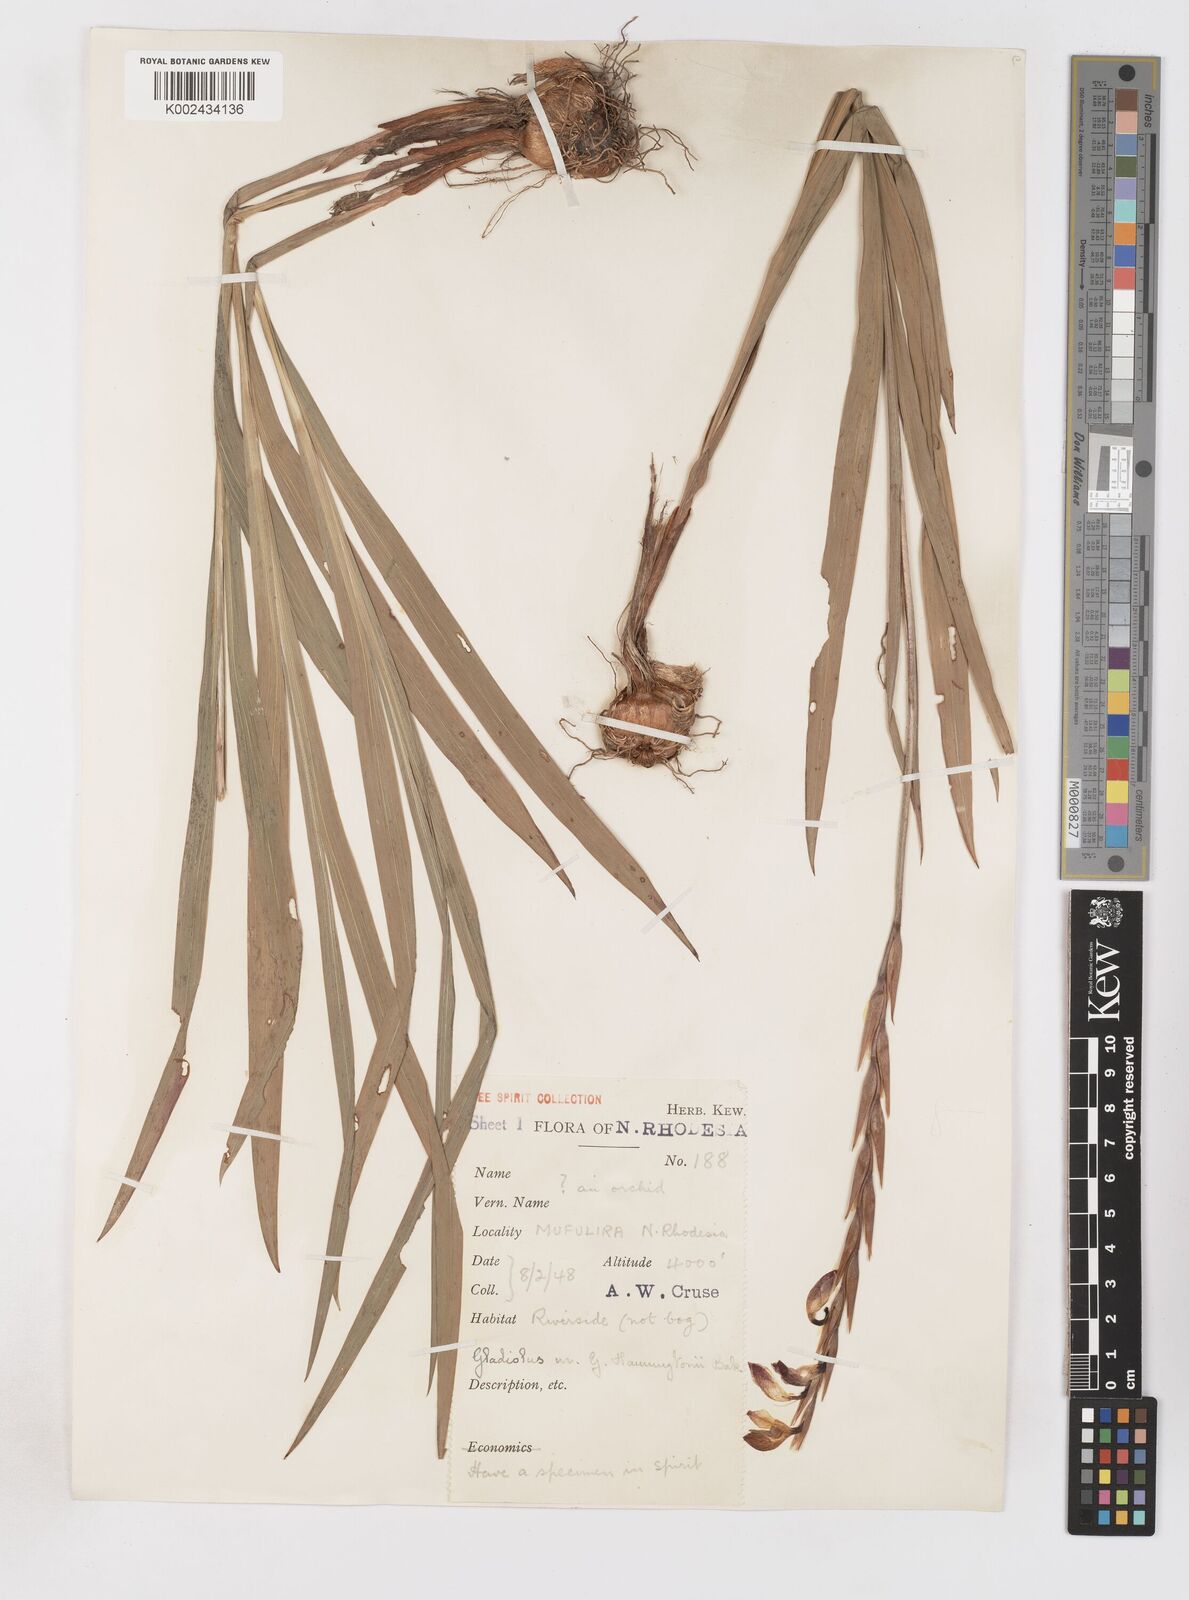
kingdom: Plantae
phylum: Tracheophyta
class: Liliopsida
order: Asparagales
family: Iridaceae
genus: Gladiolus
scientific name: Gladiolus gregarius
